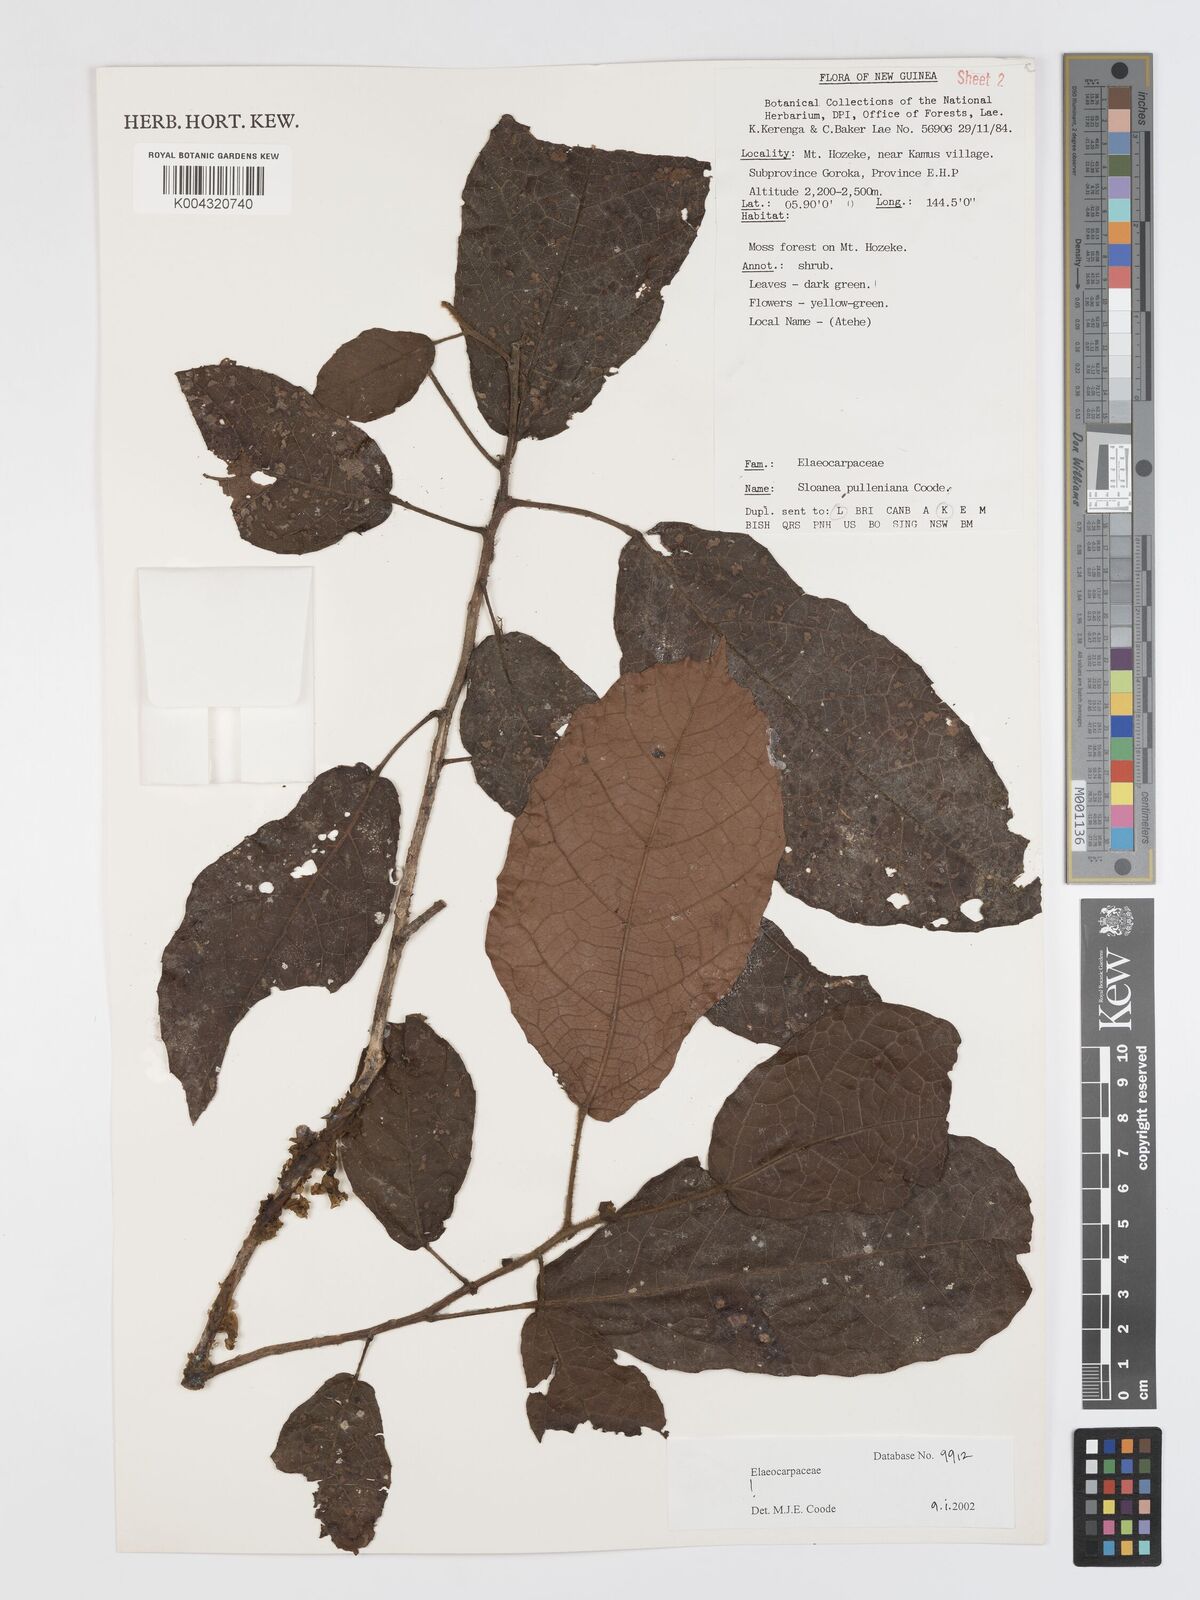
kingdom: Plantae
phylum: Tracheophyta
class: Magnoliopsida
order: Oxalidales
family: Elaeocarpaceae
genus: Sloanea
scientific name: Sloanea pulleniana
